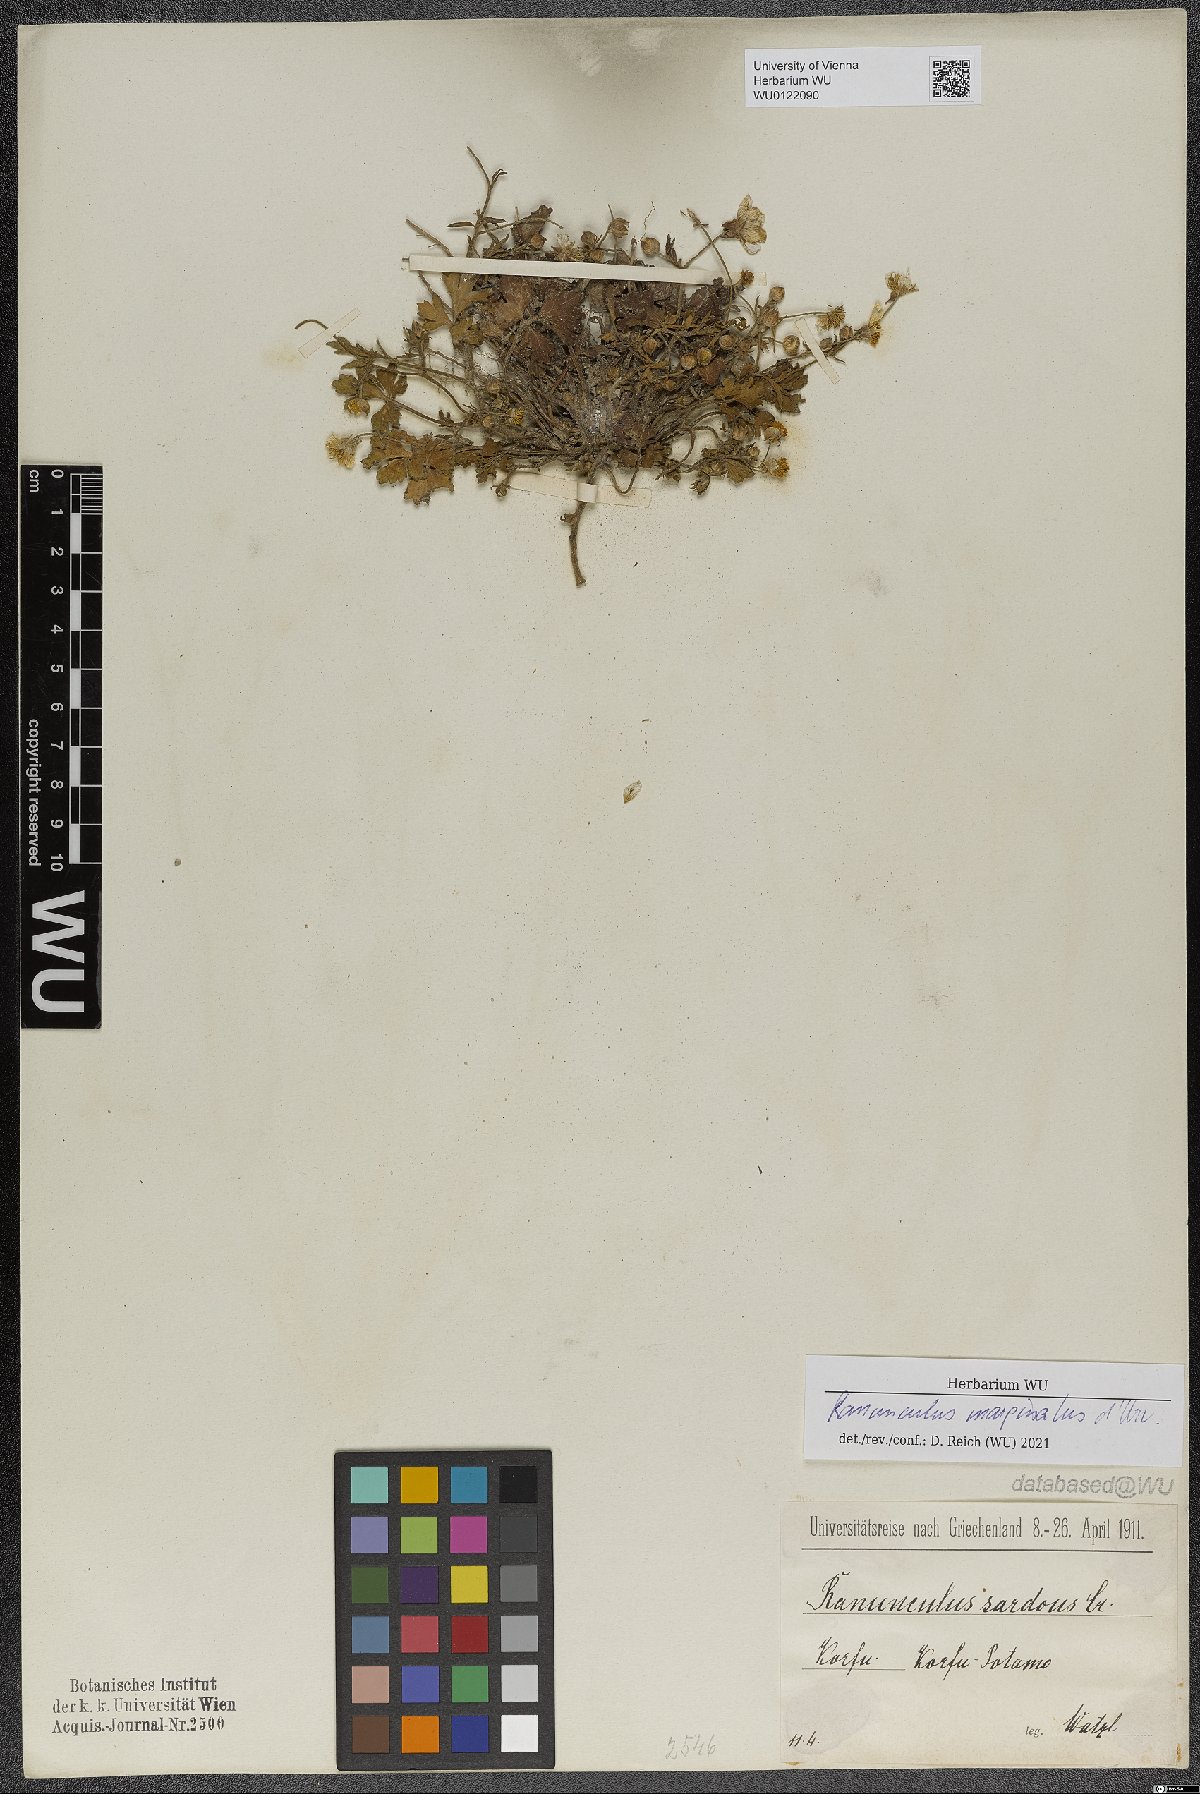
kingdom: Plantae
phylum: Tracheophyta
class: Magnoliopsida
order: Ranunculales
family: Ranunculaceae
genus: Ranunculus
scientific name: Ranunculus marginatus
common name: St. martin's buttercup
